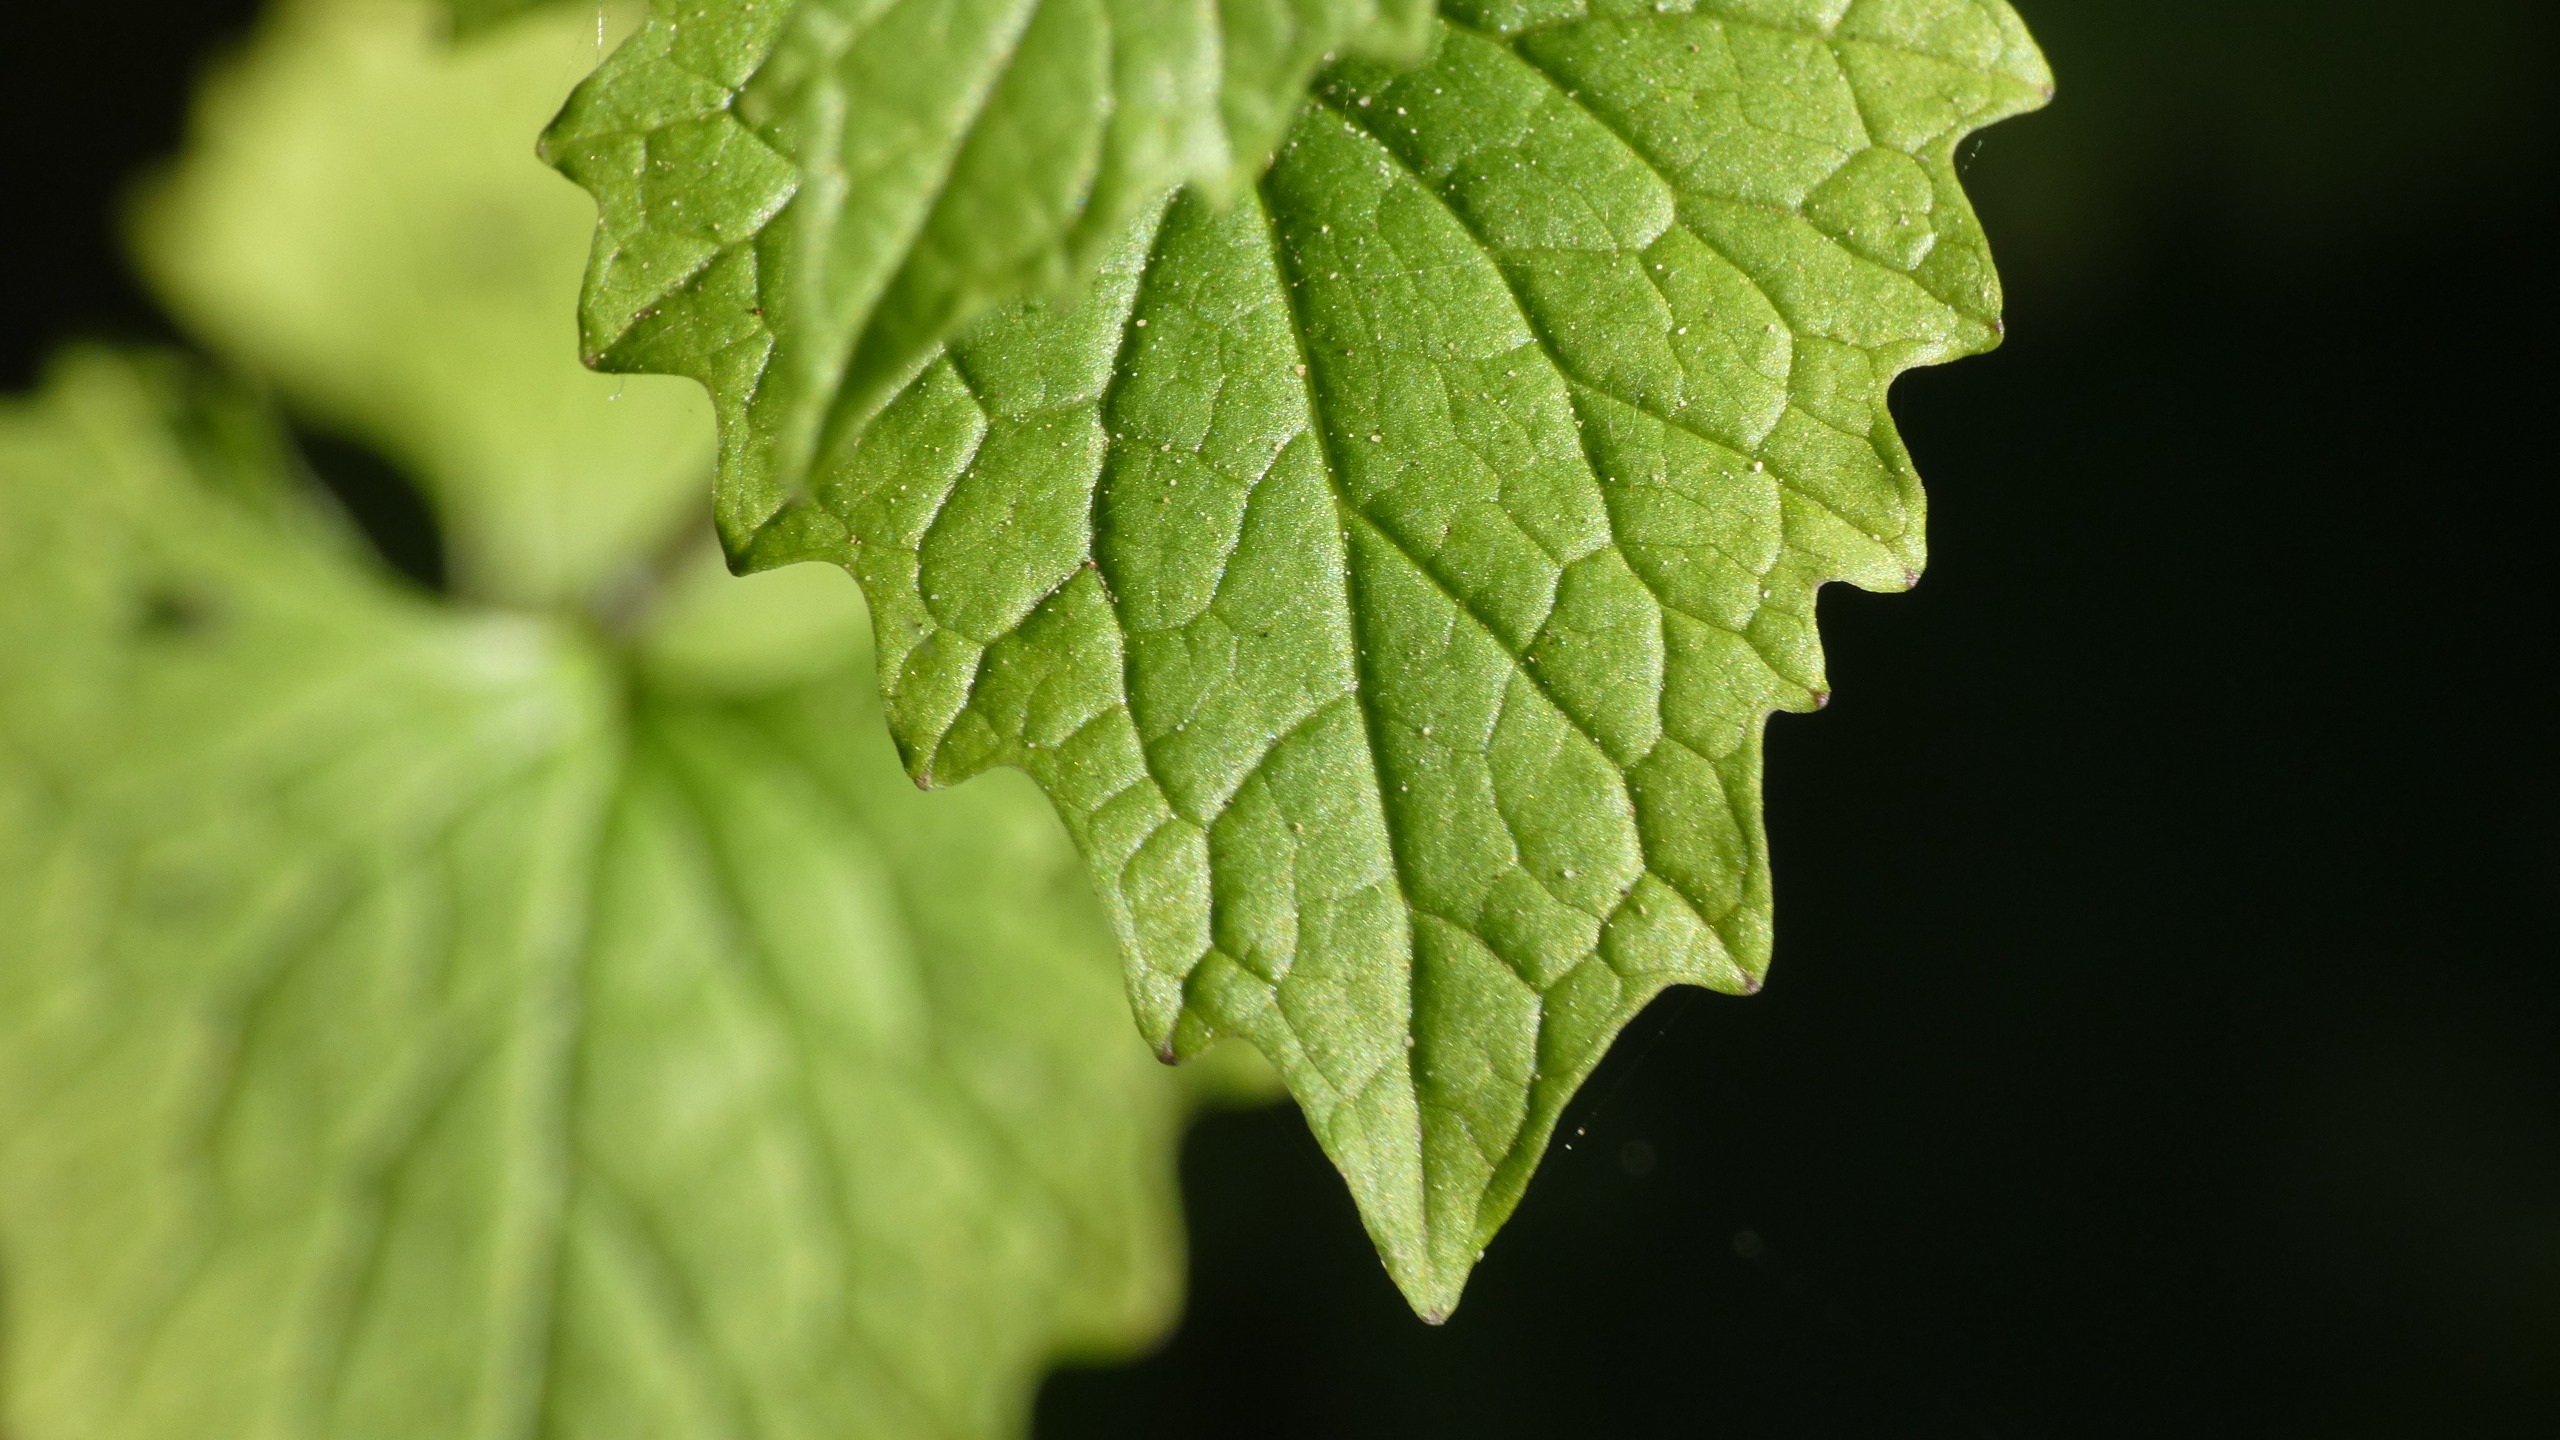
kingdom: Plantae
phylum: Tracheophyta
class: Magnoliopsida
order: Brassicales
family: Brassicaceae
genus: Alliaria
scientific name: Alliaria petiolata
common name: Løgkarse
